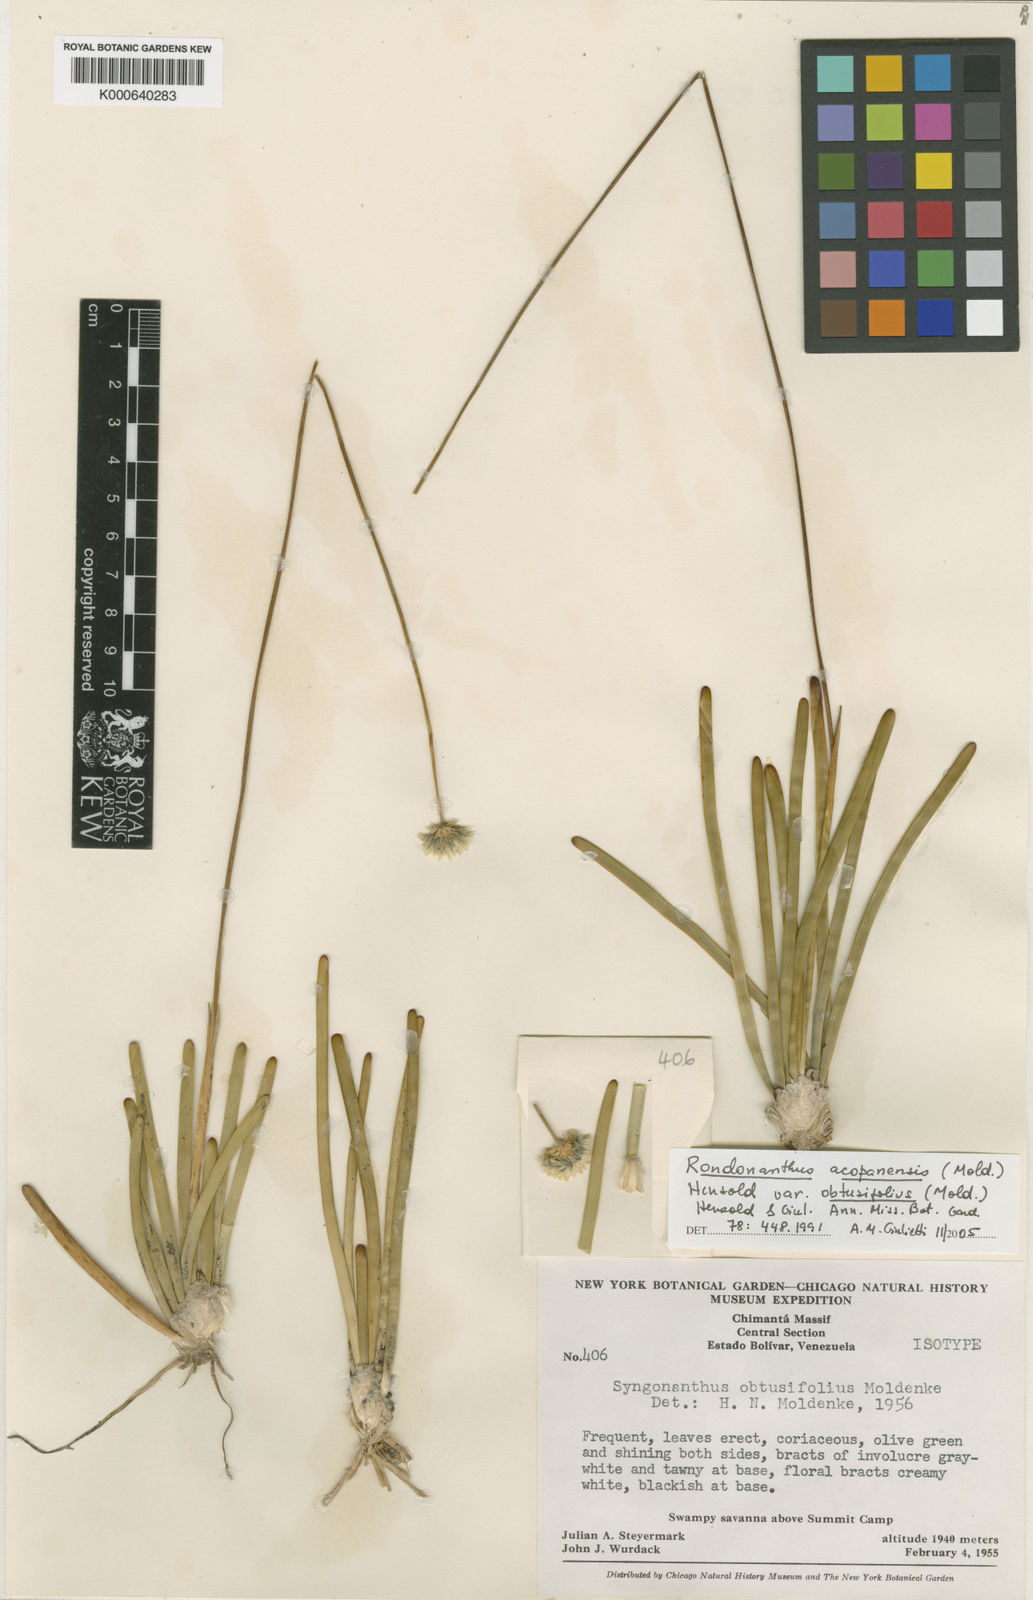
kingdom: Plantae
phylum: Tracheophyta
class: Liliopsida
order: Poales
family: Eriocaulaceae
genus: Rondonanthus
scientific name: Rondonanthus acopanensis
